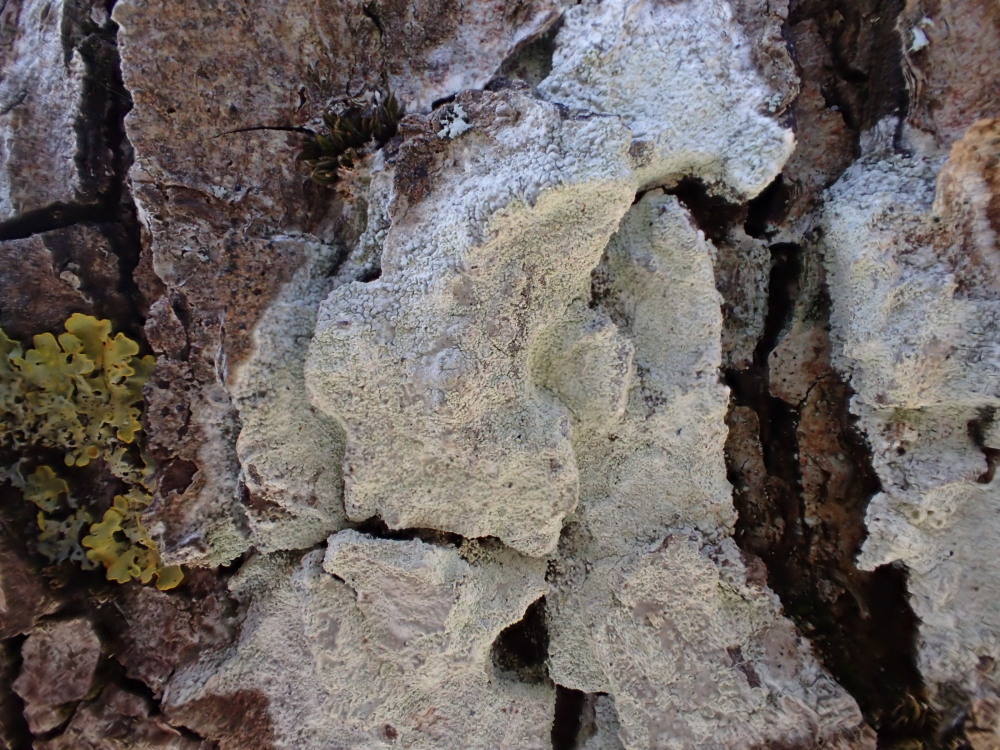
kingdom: Fungi
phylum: Ascomycota
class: Lecanoromycetes
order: Ostropales
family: Phlyctidaceae
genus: Phlyctis
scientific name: Phlyctis argena
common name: almindelig sølvlav
